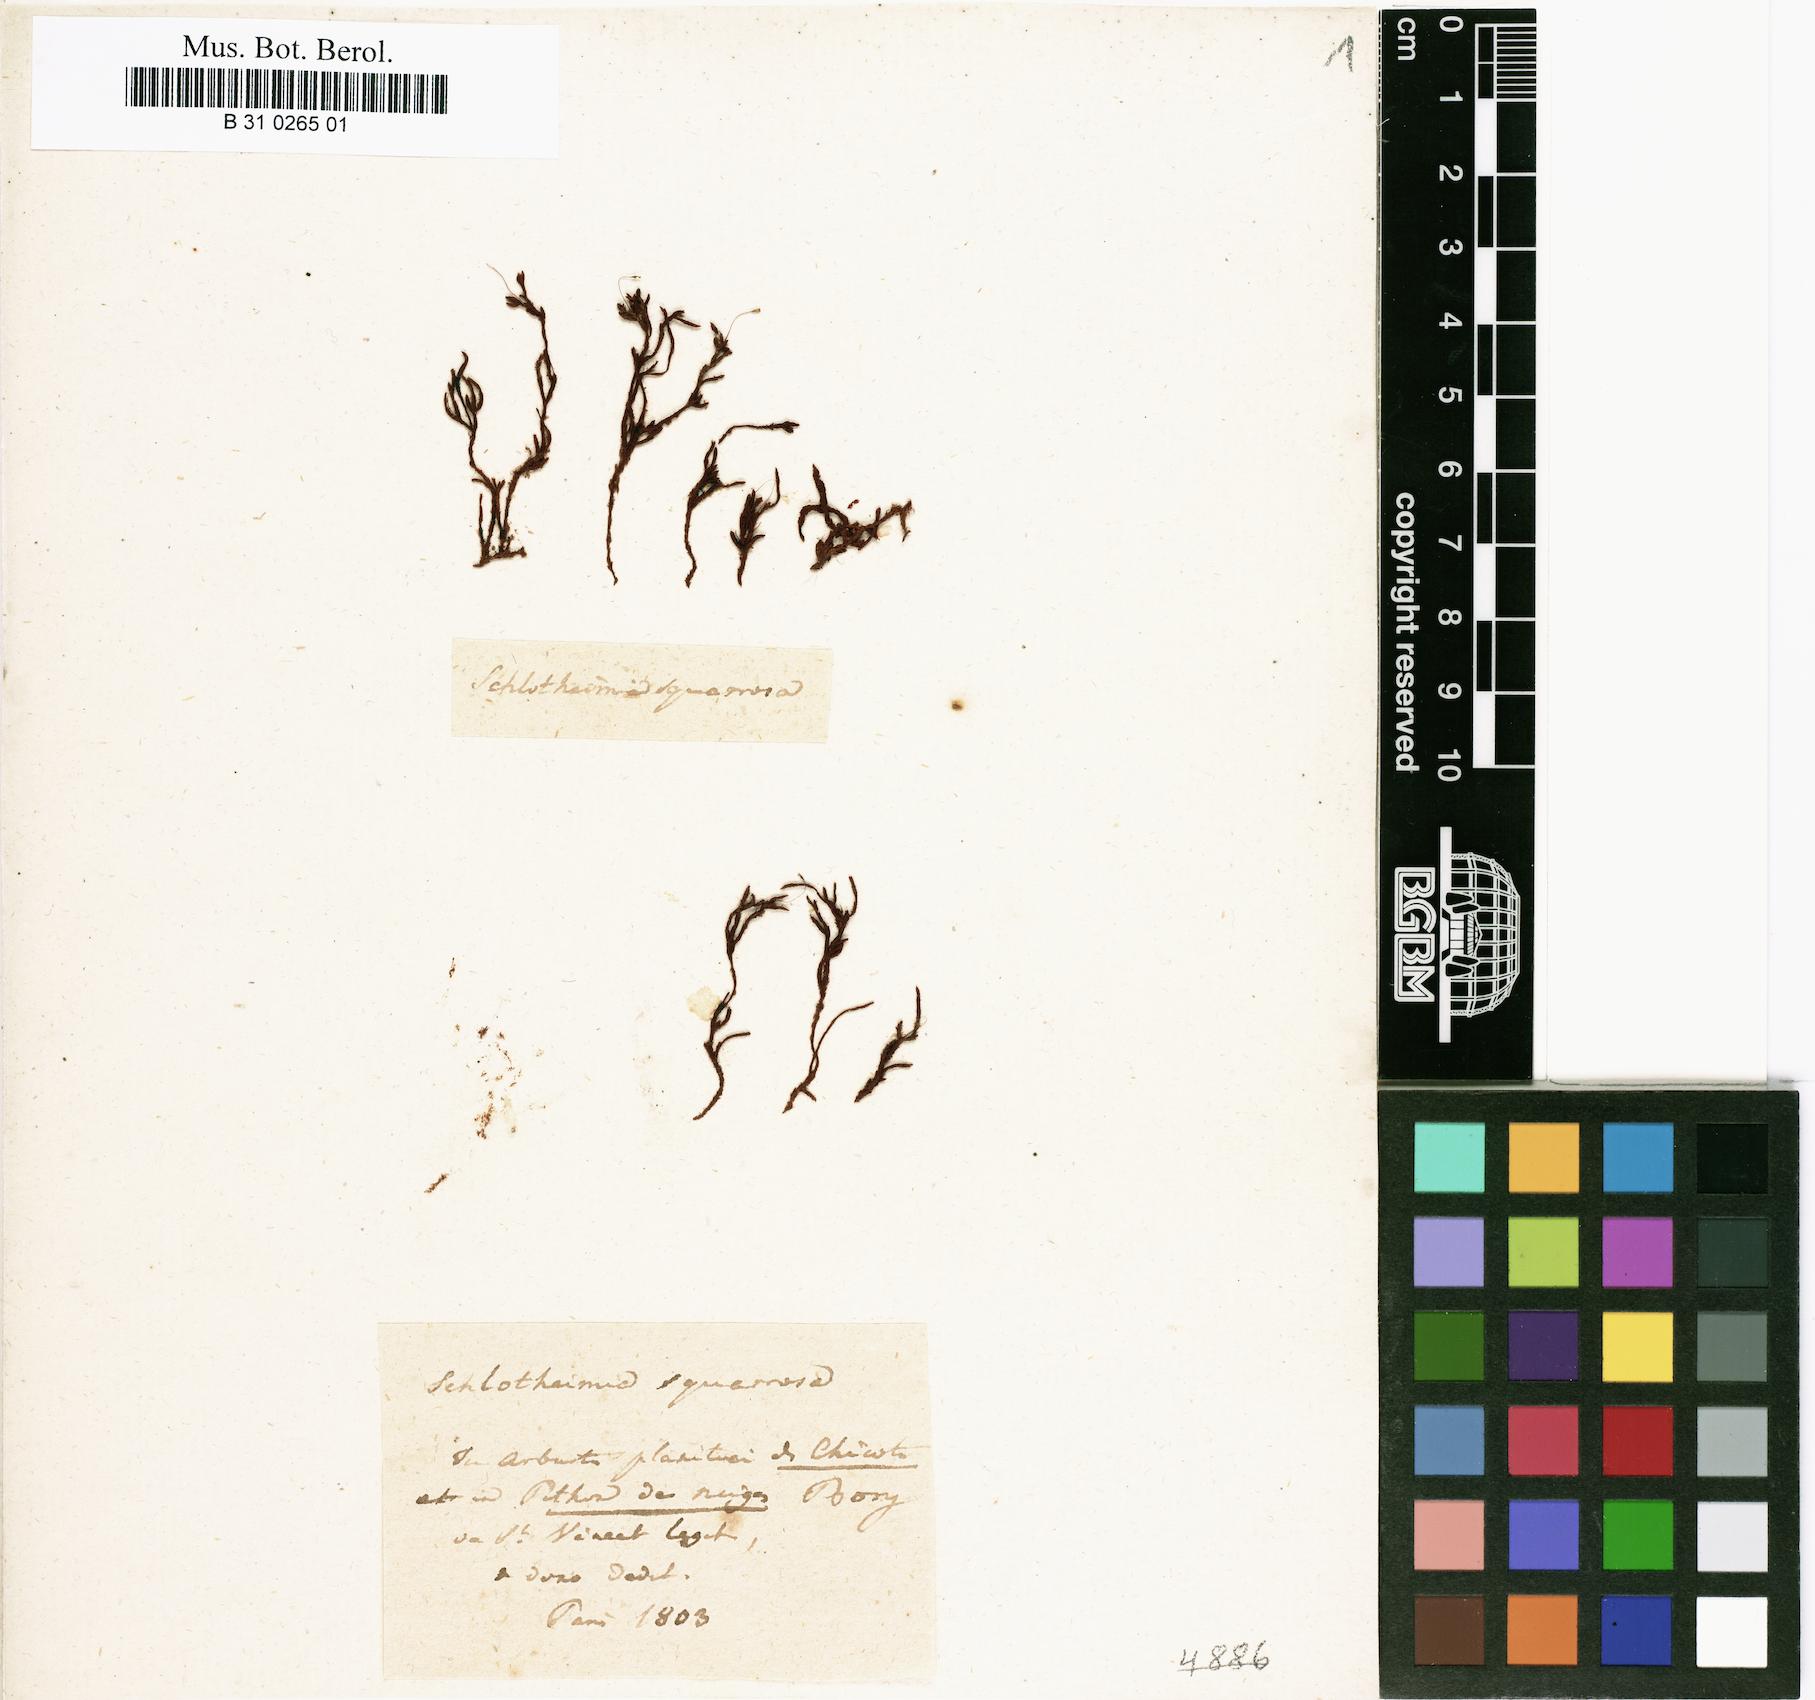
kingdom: Plantae
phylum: Bryophyta
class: Bryopsida
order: Orthotrichales
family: Orthotrichaceae
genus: Schlotheimia
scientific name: Schlotheimia squarrosa
